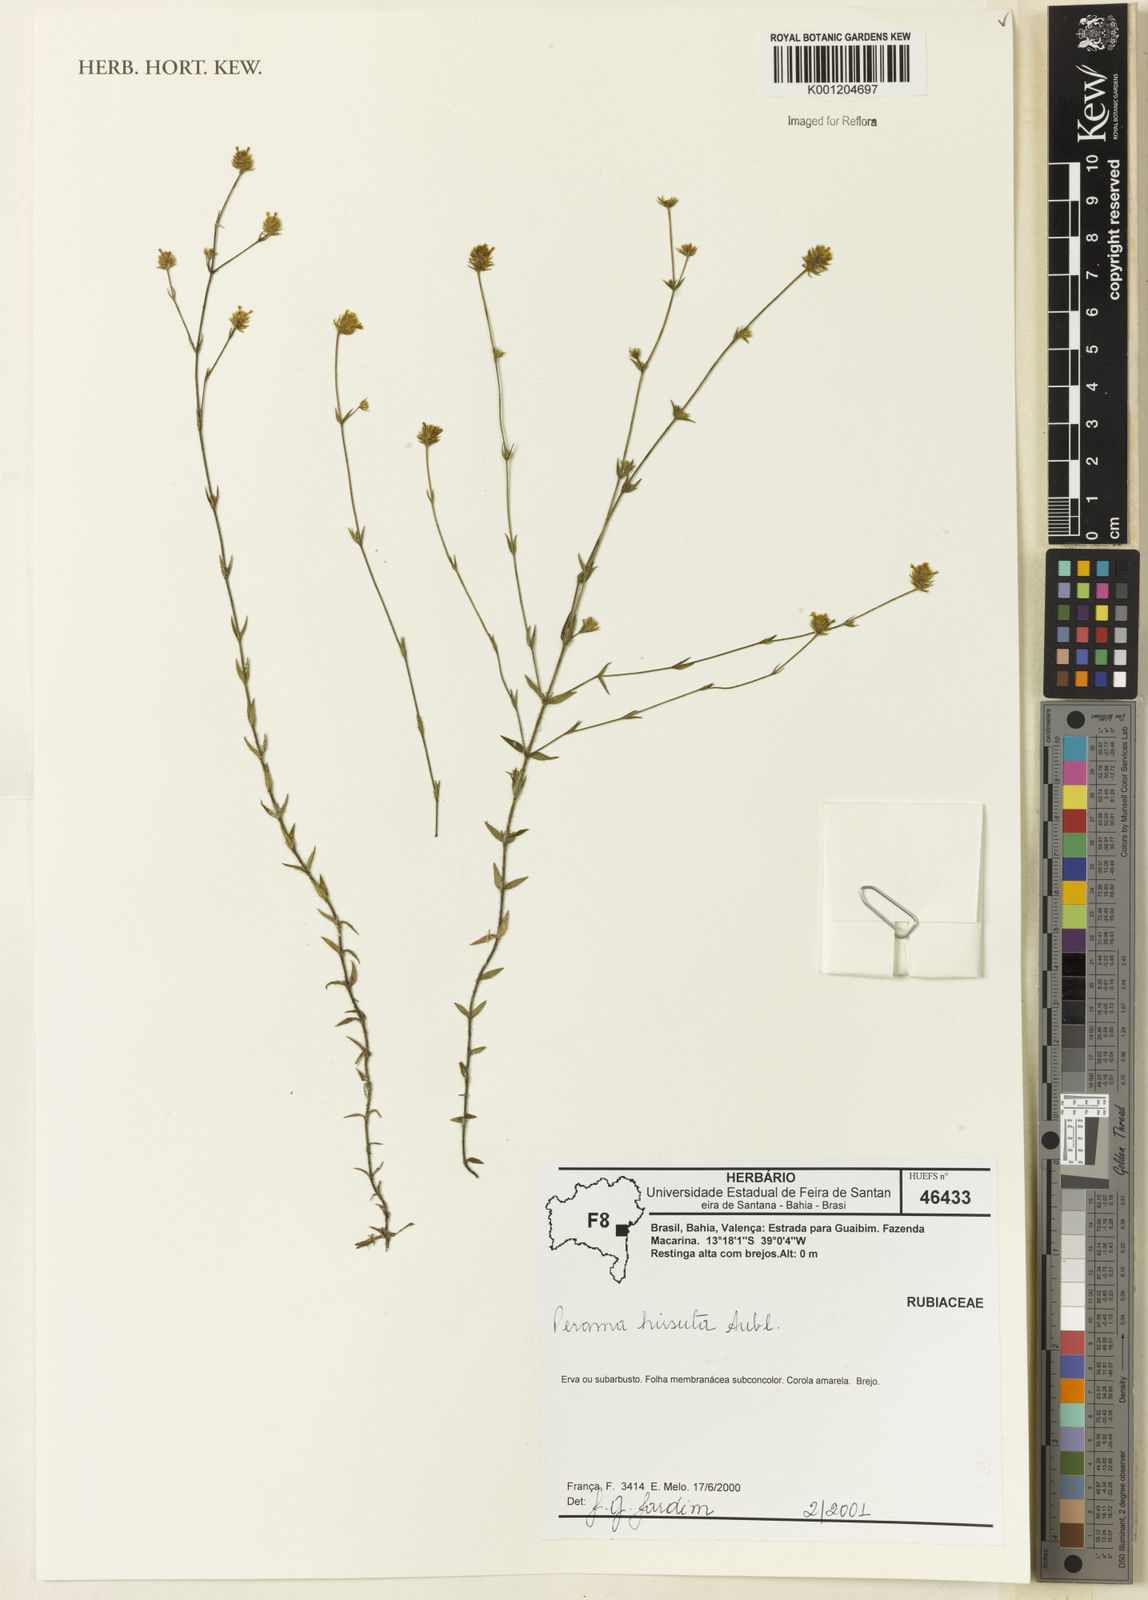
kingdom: Plantae
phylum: Tracheophyta
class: Magnoliopsida
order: Gentianales
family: Rubiaceae
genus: Perama
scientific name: Perama hirsuta
